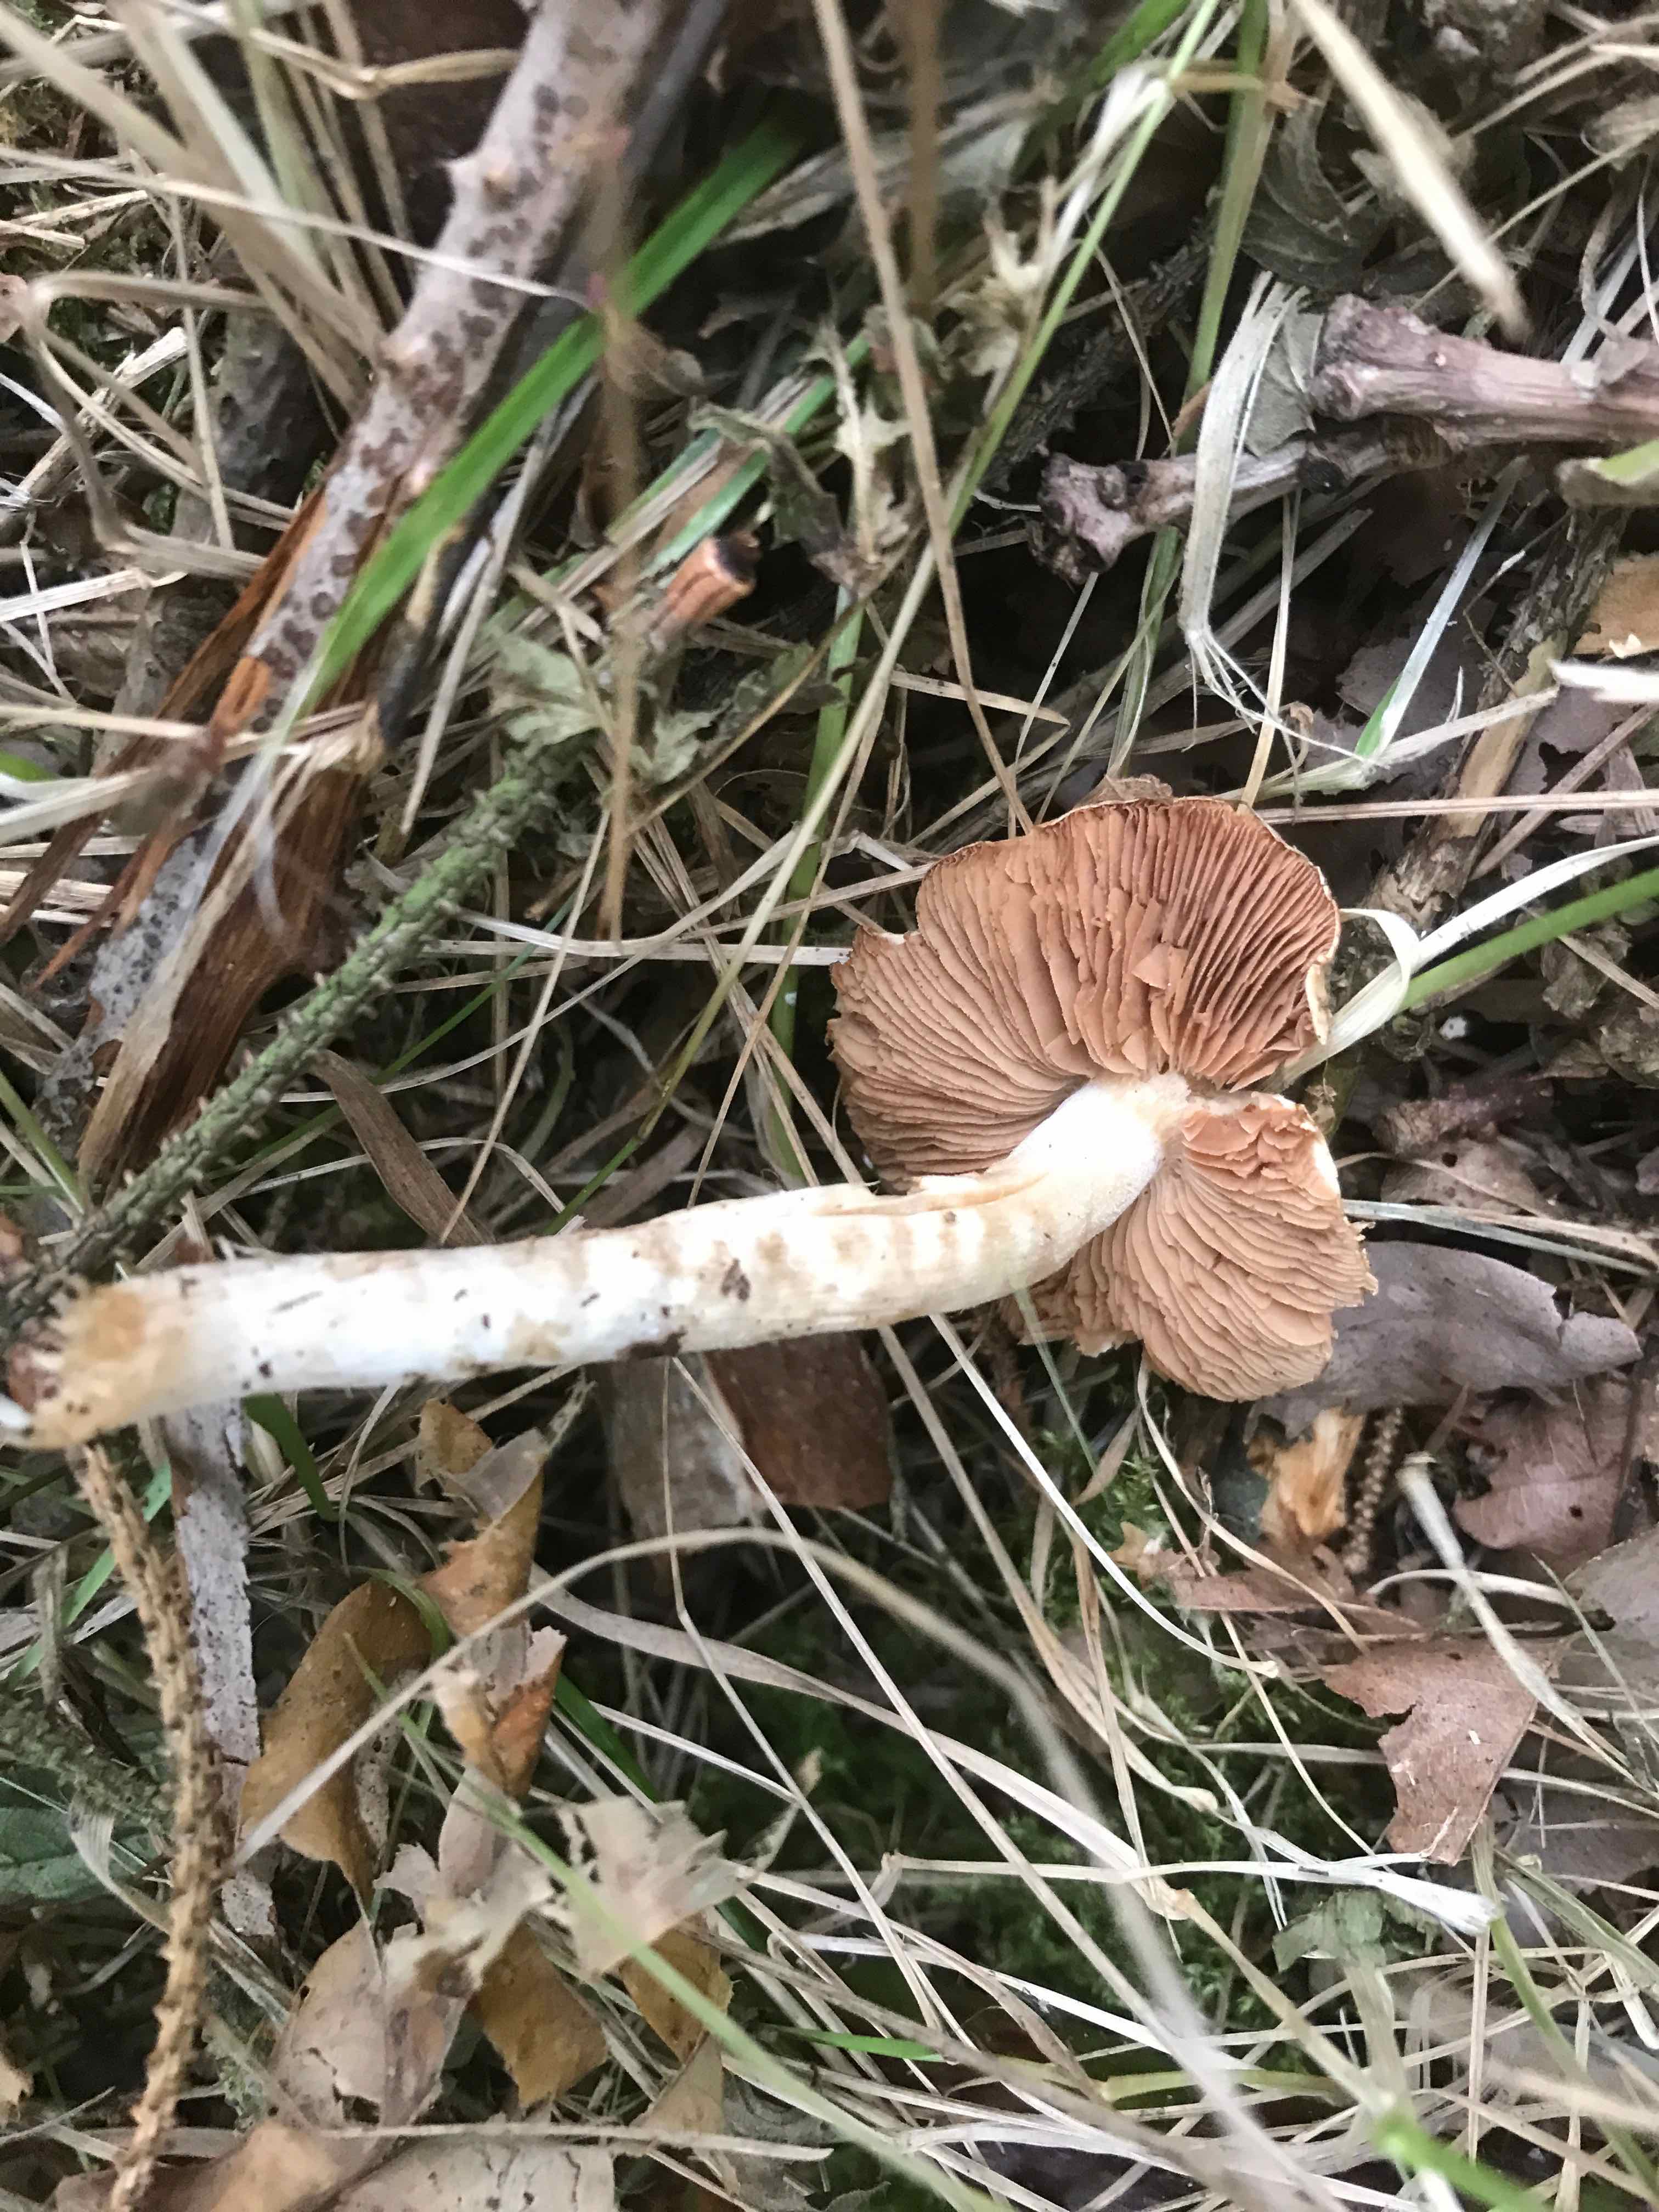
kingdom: Fungi
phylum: Basidiomycota
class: Agaricomycetes
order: Agaricales
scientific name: Agaricales
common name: champignonordenen
